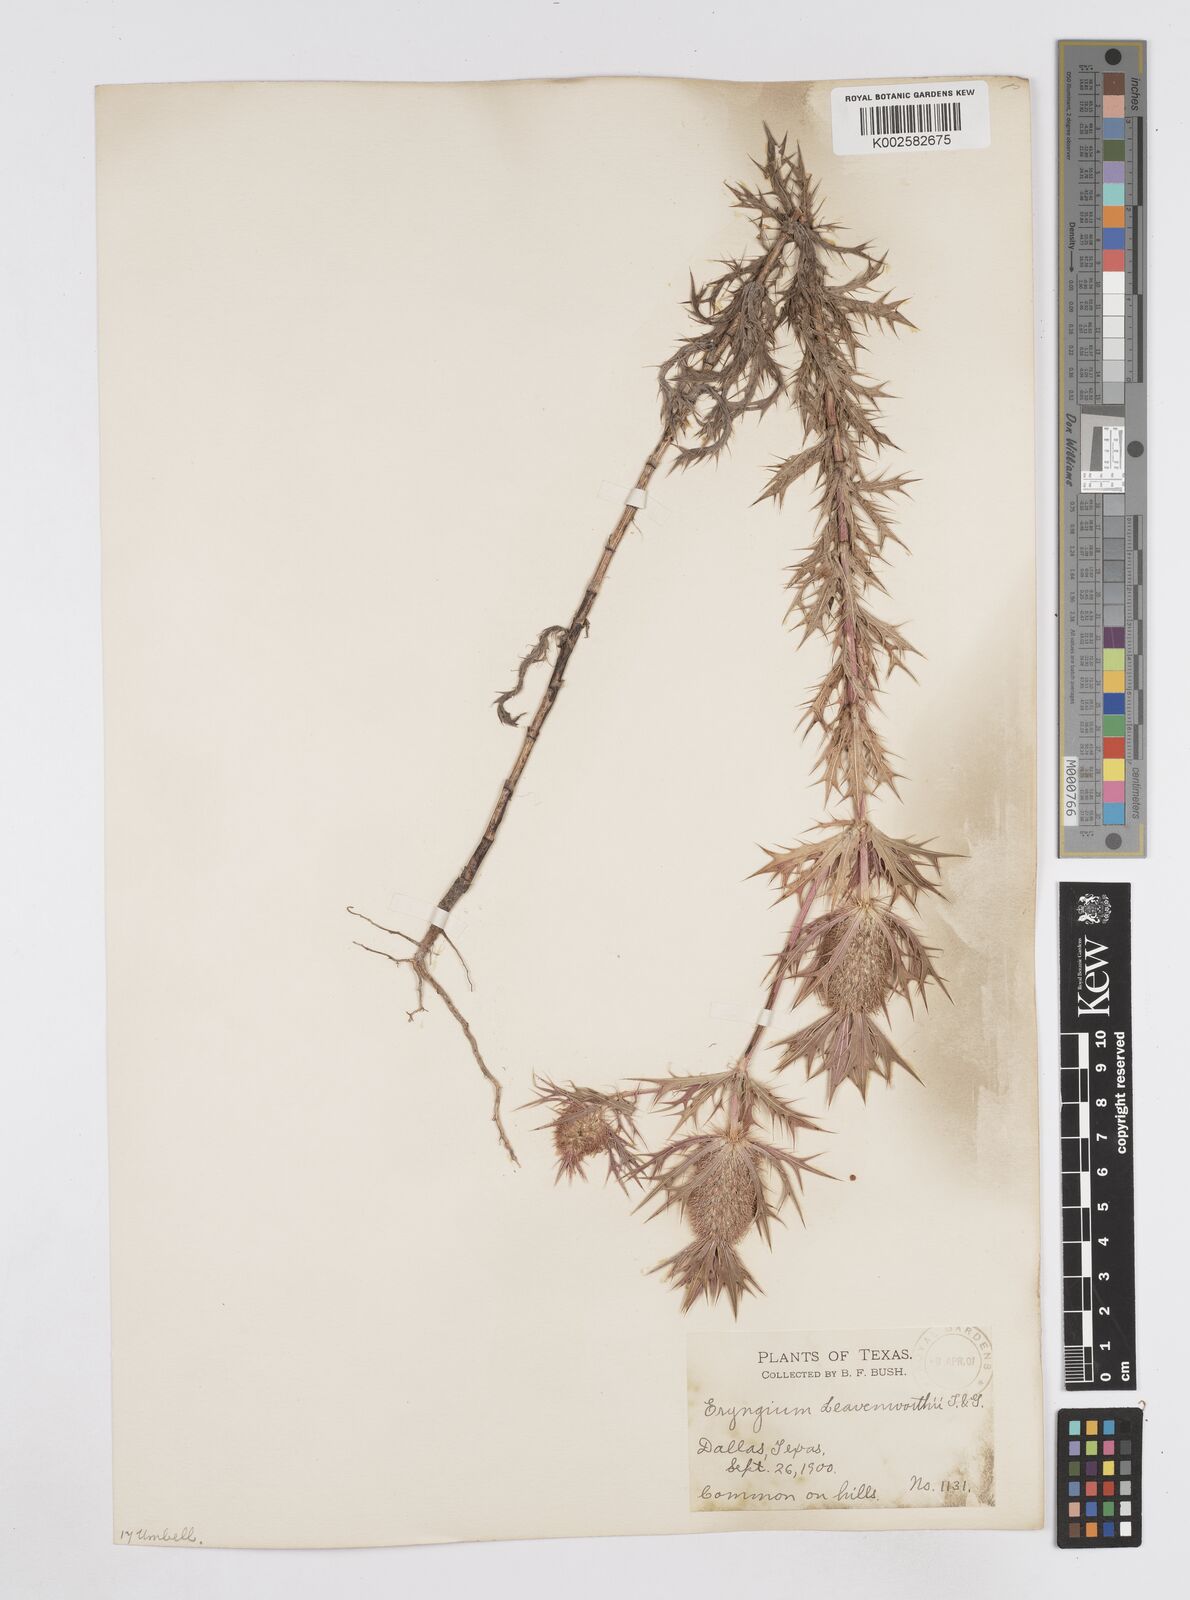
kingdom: Plantae
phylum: Tracheophyta
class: Magnoliopsida
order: Apiales
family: Apiaceae
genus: Eryngium
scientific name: Eryngium leavenworthii
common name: Leavenworth's eryngo
